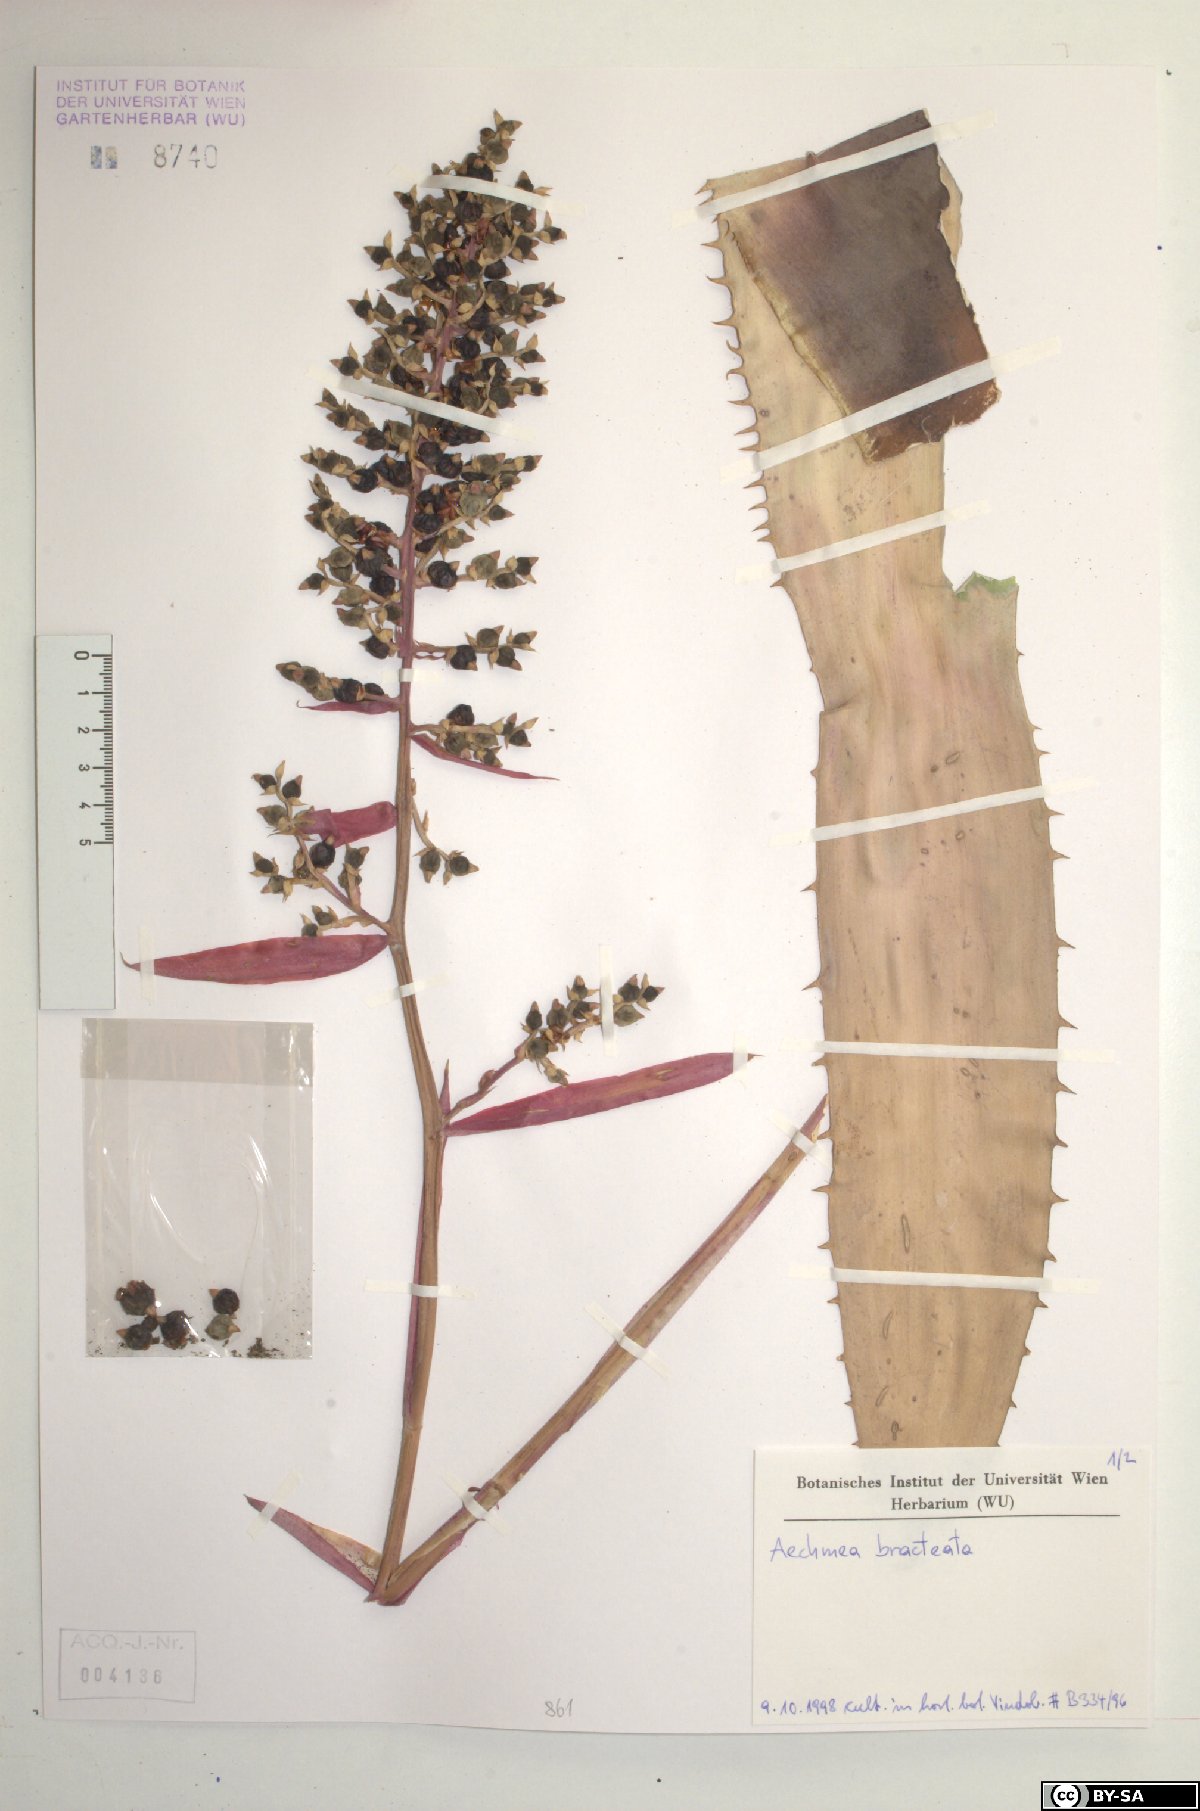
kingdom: Plantae
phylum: Tracheophyta
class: Liliopsida
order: Poales
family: Bromeliaceae
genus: Aechmea
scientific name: Aechmea bracteata
